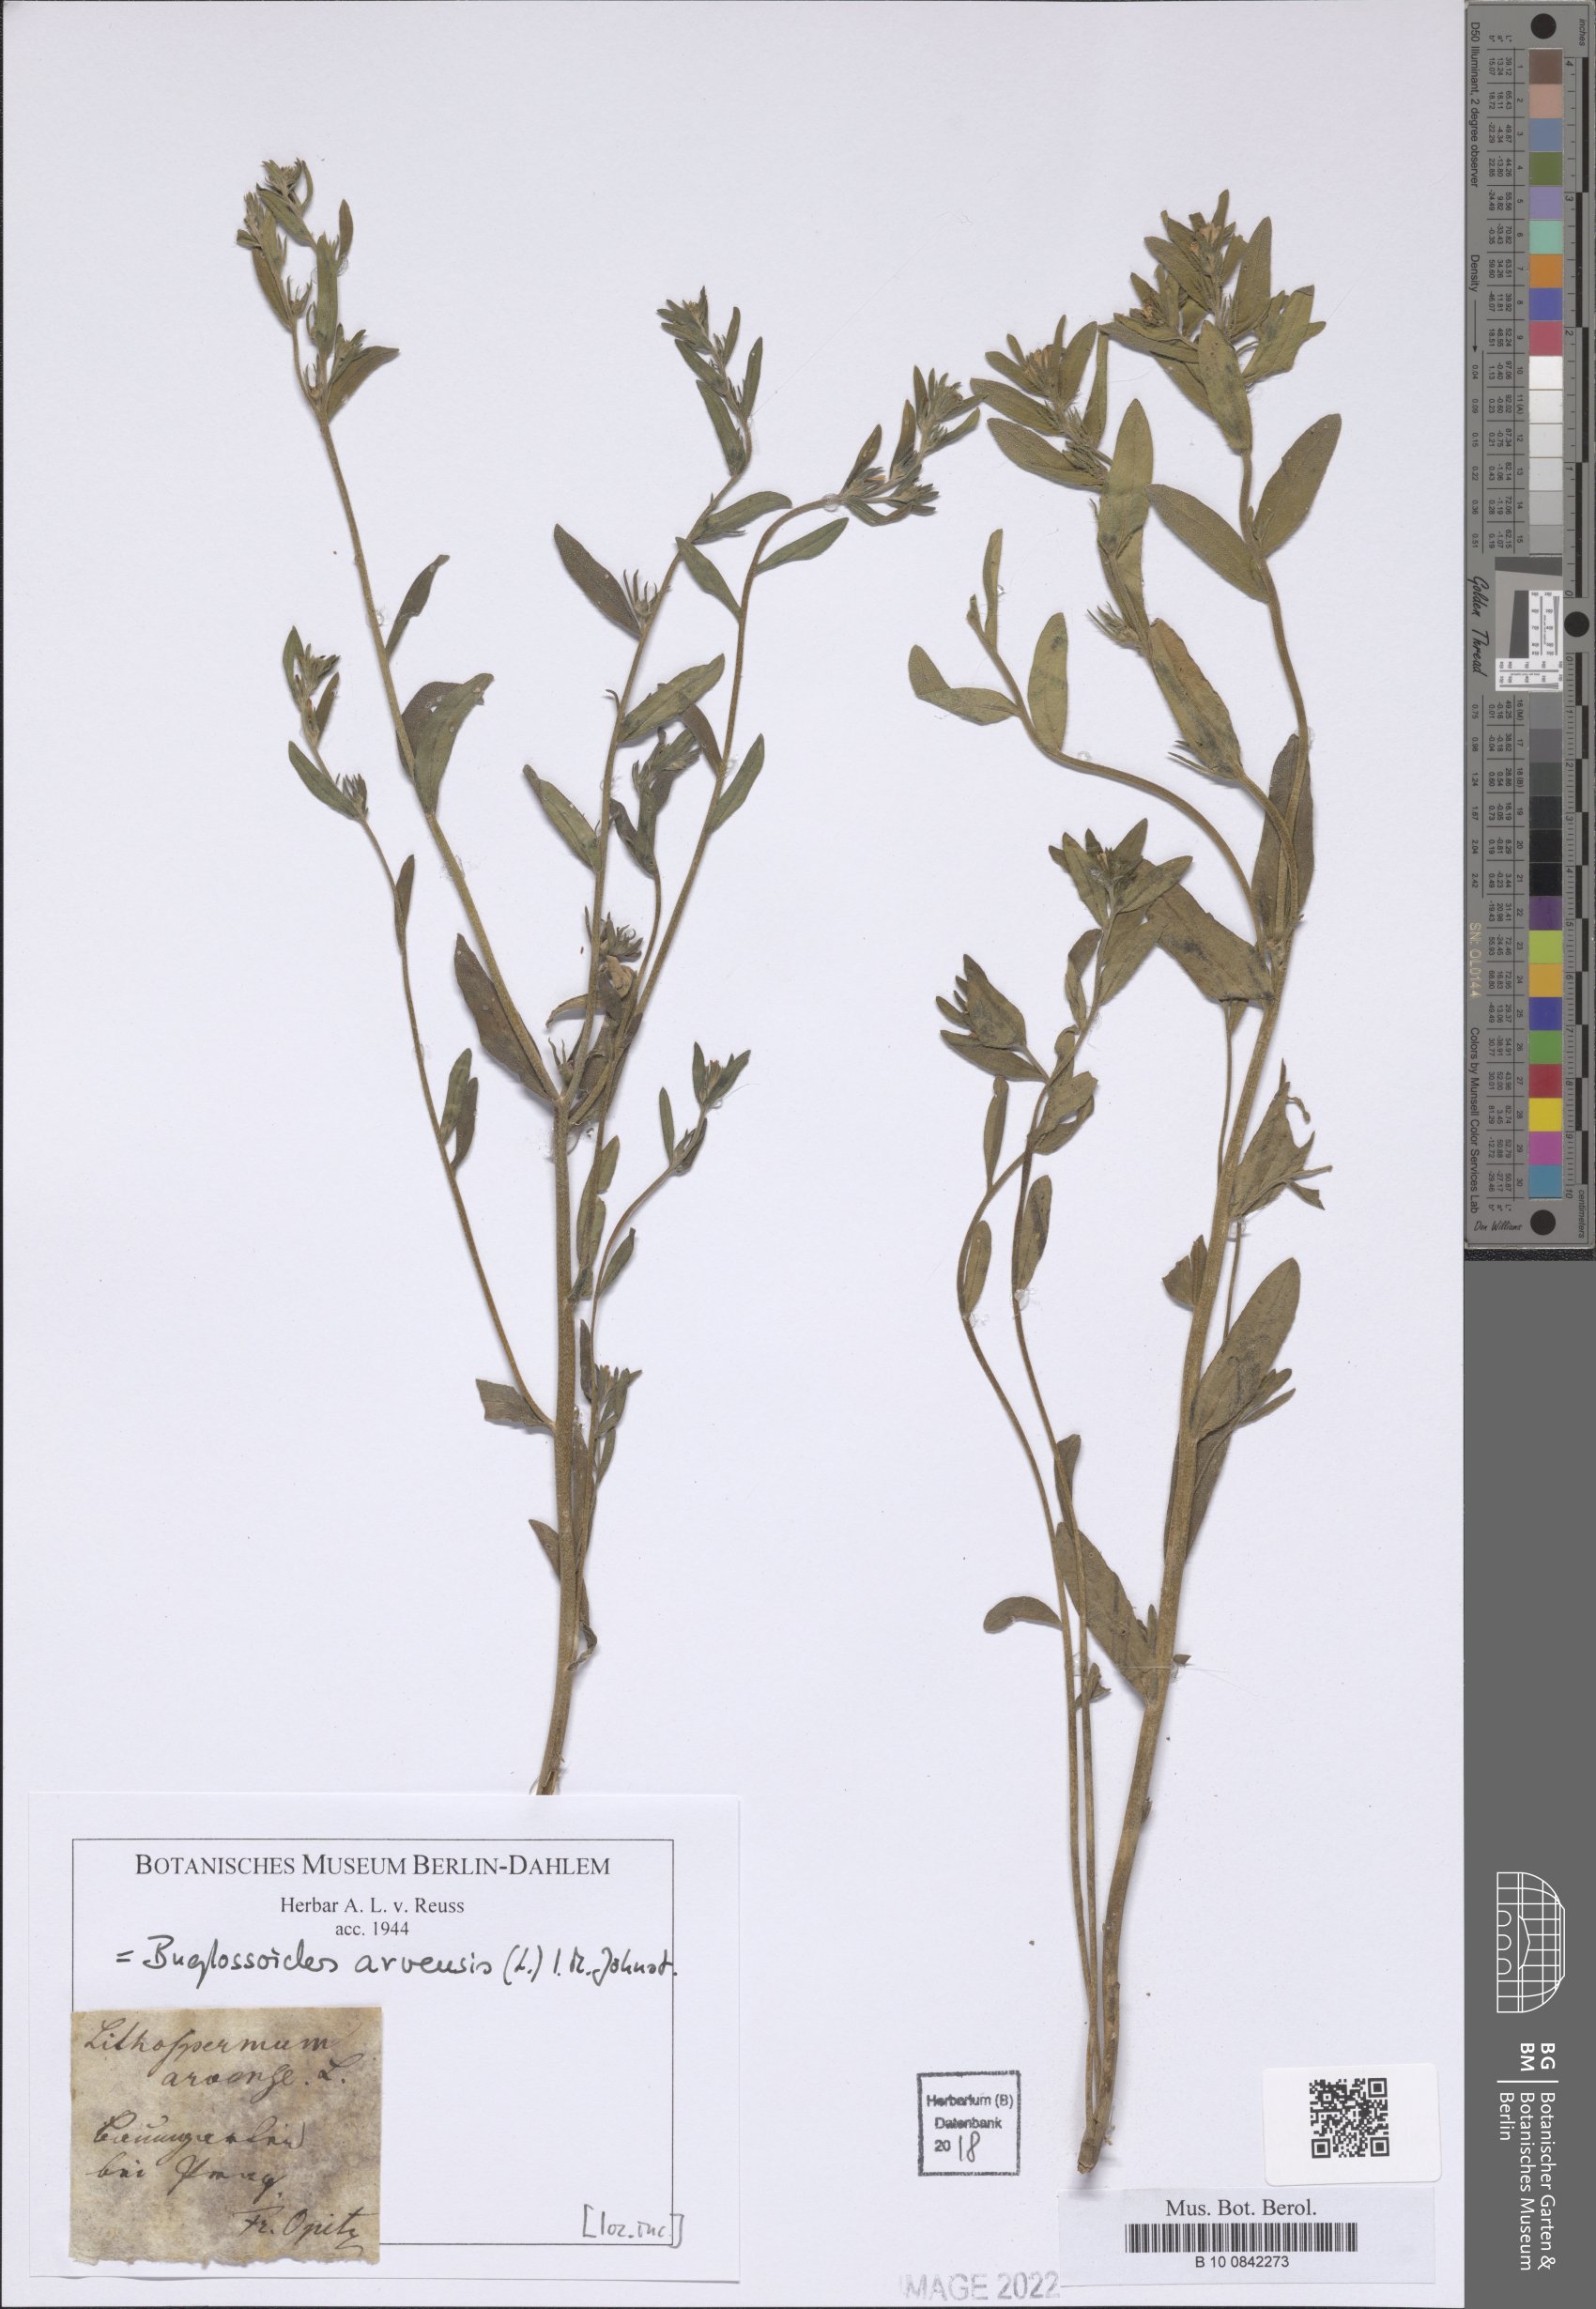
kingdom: Plantae
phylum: Tracheophyta
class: Magnoliopsida
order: Boraginales
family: Boraginaceae
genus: Buglossoides
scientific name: Buglossoides arvensis
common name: Corn gromwell
